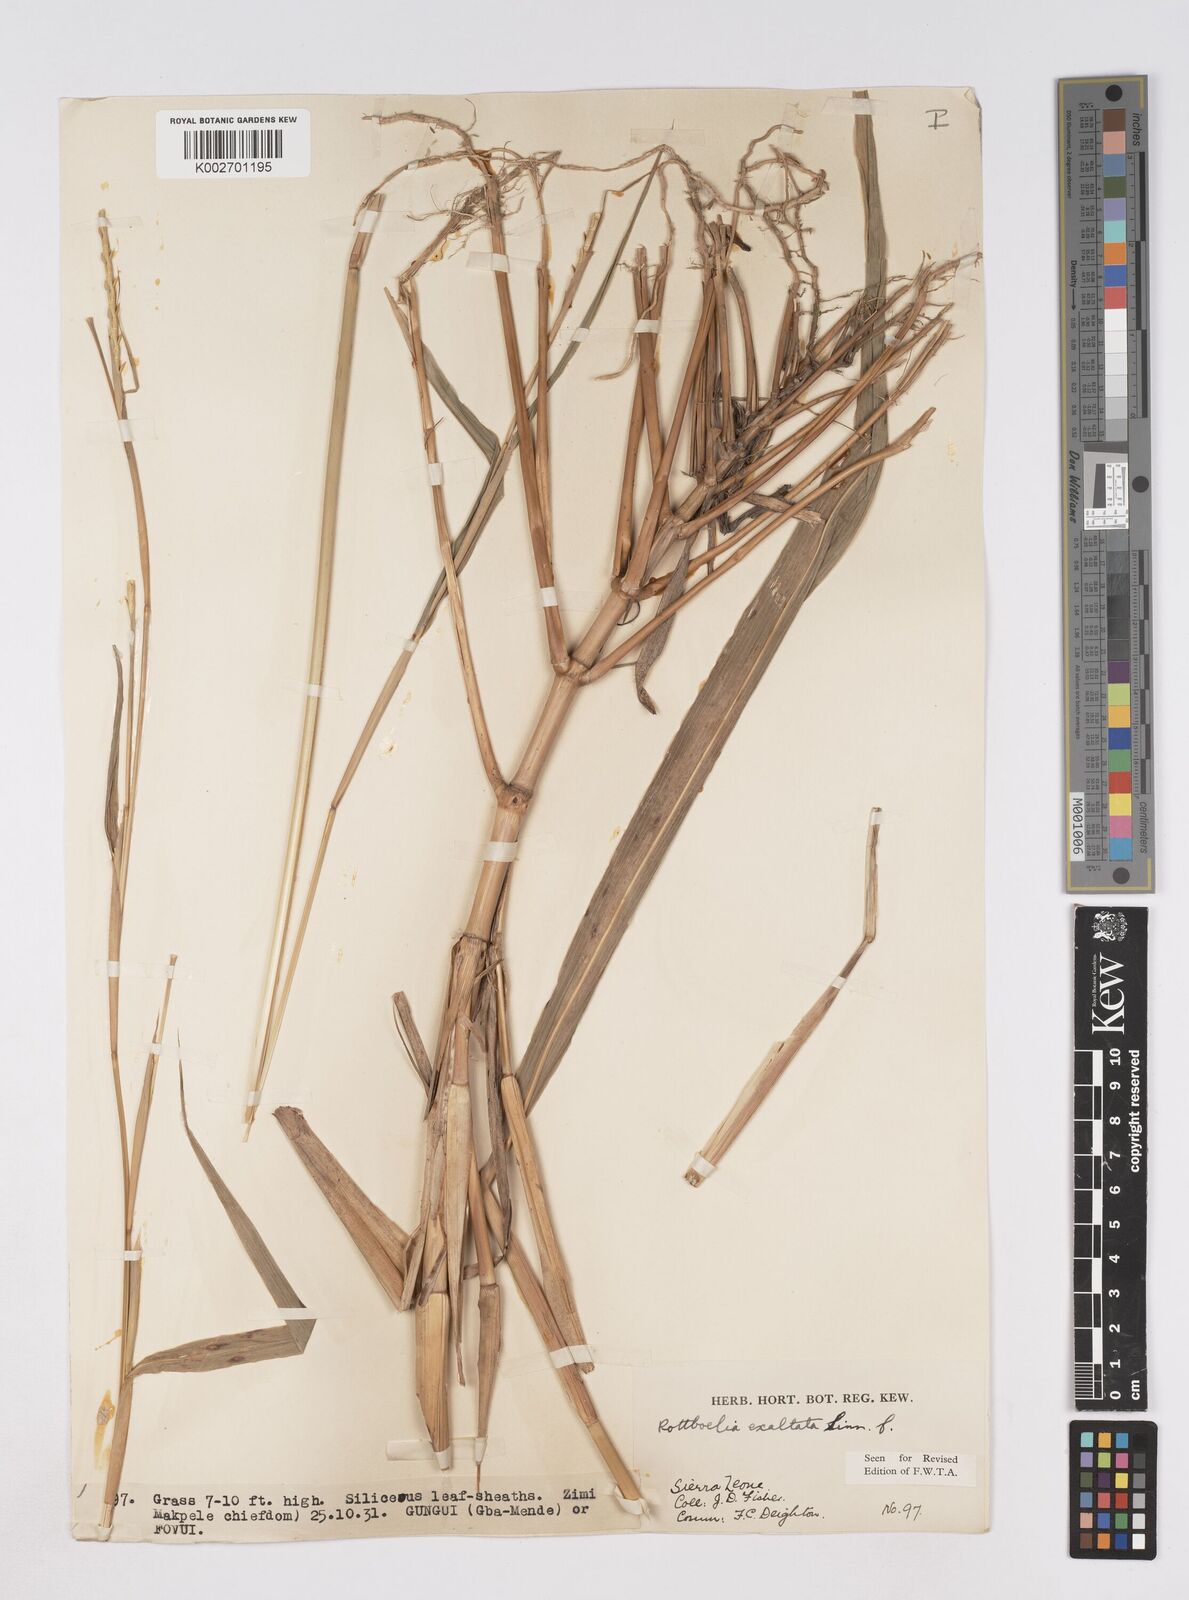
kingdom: Plantae
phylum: Tracheophyta
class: Liliopsida
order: Poales
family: Poaceae
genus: Ophiuros
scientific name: Ophiuros exaltatus
